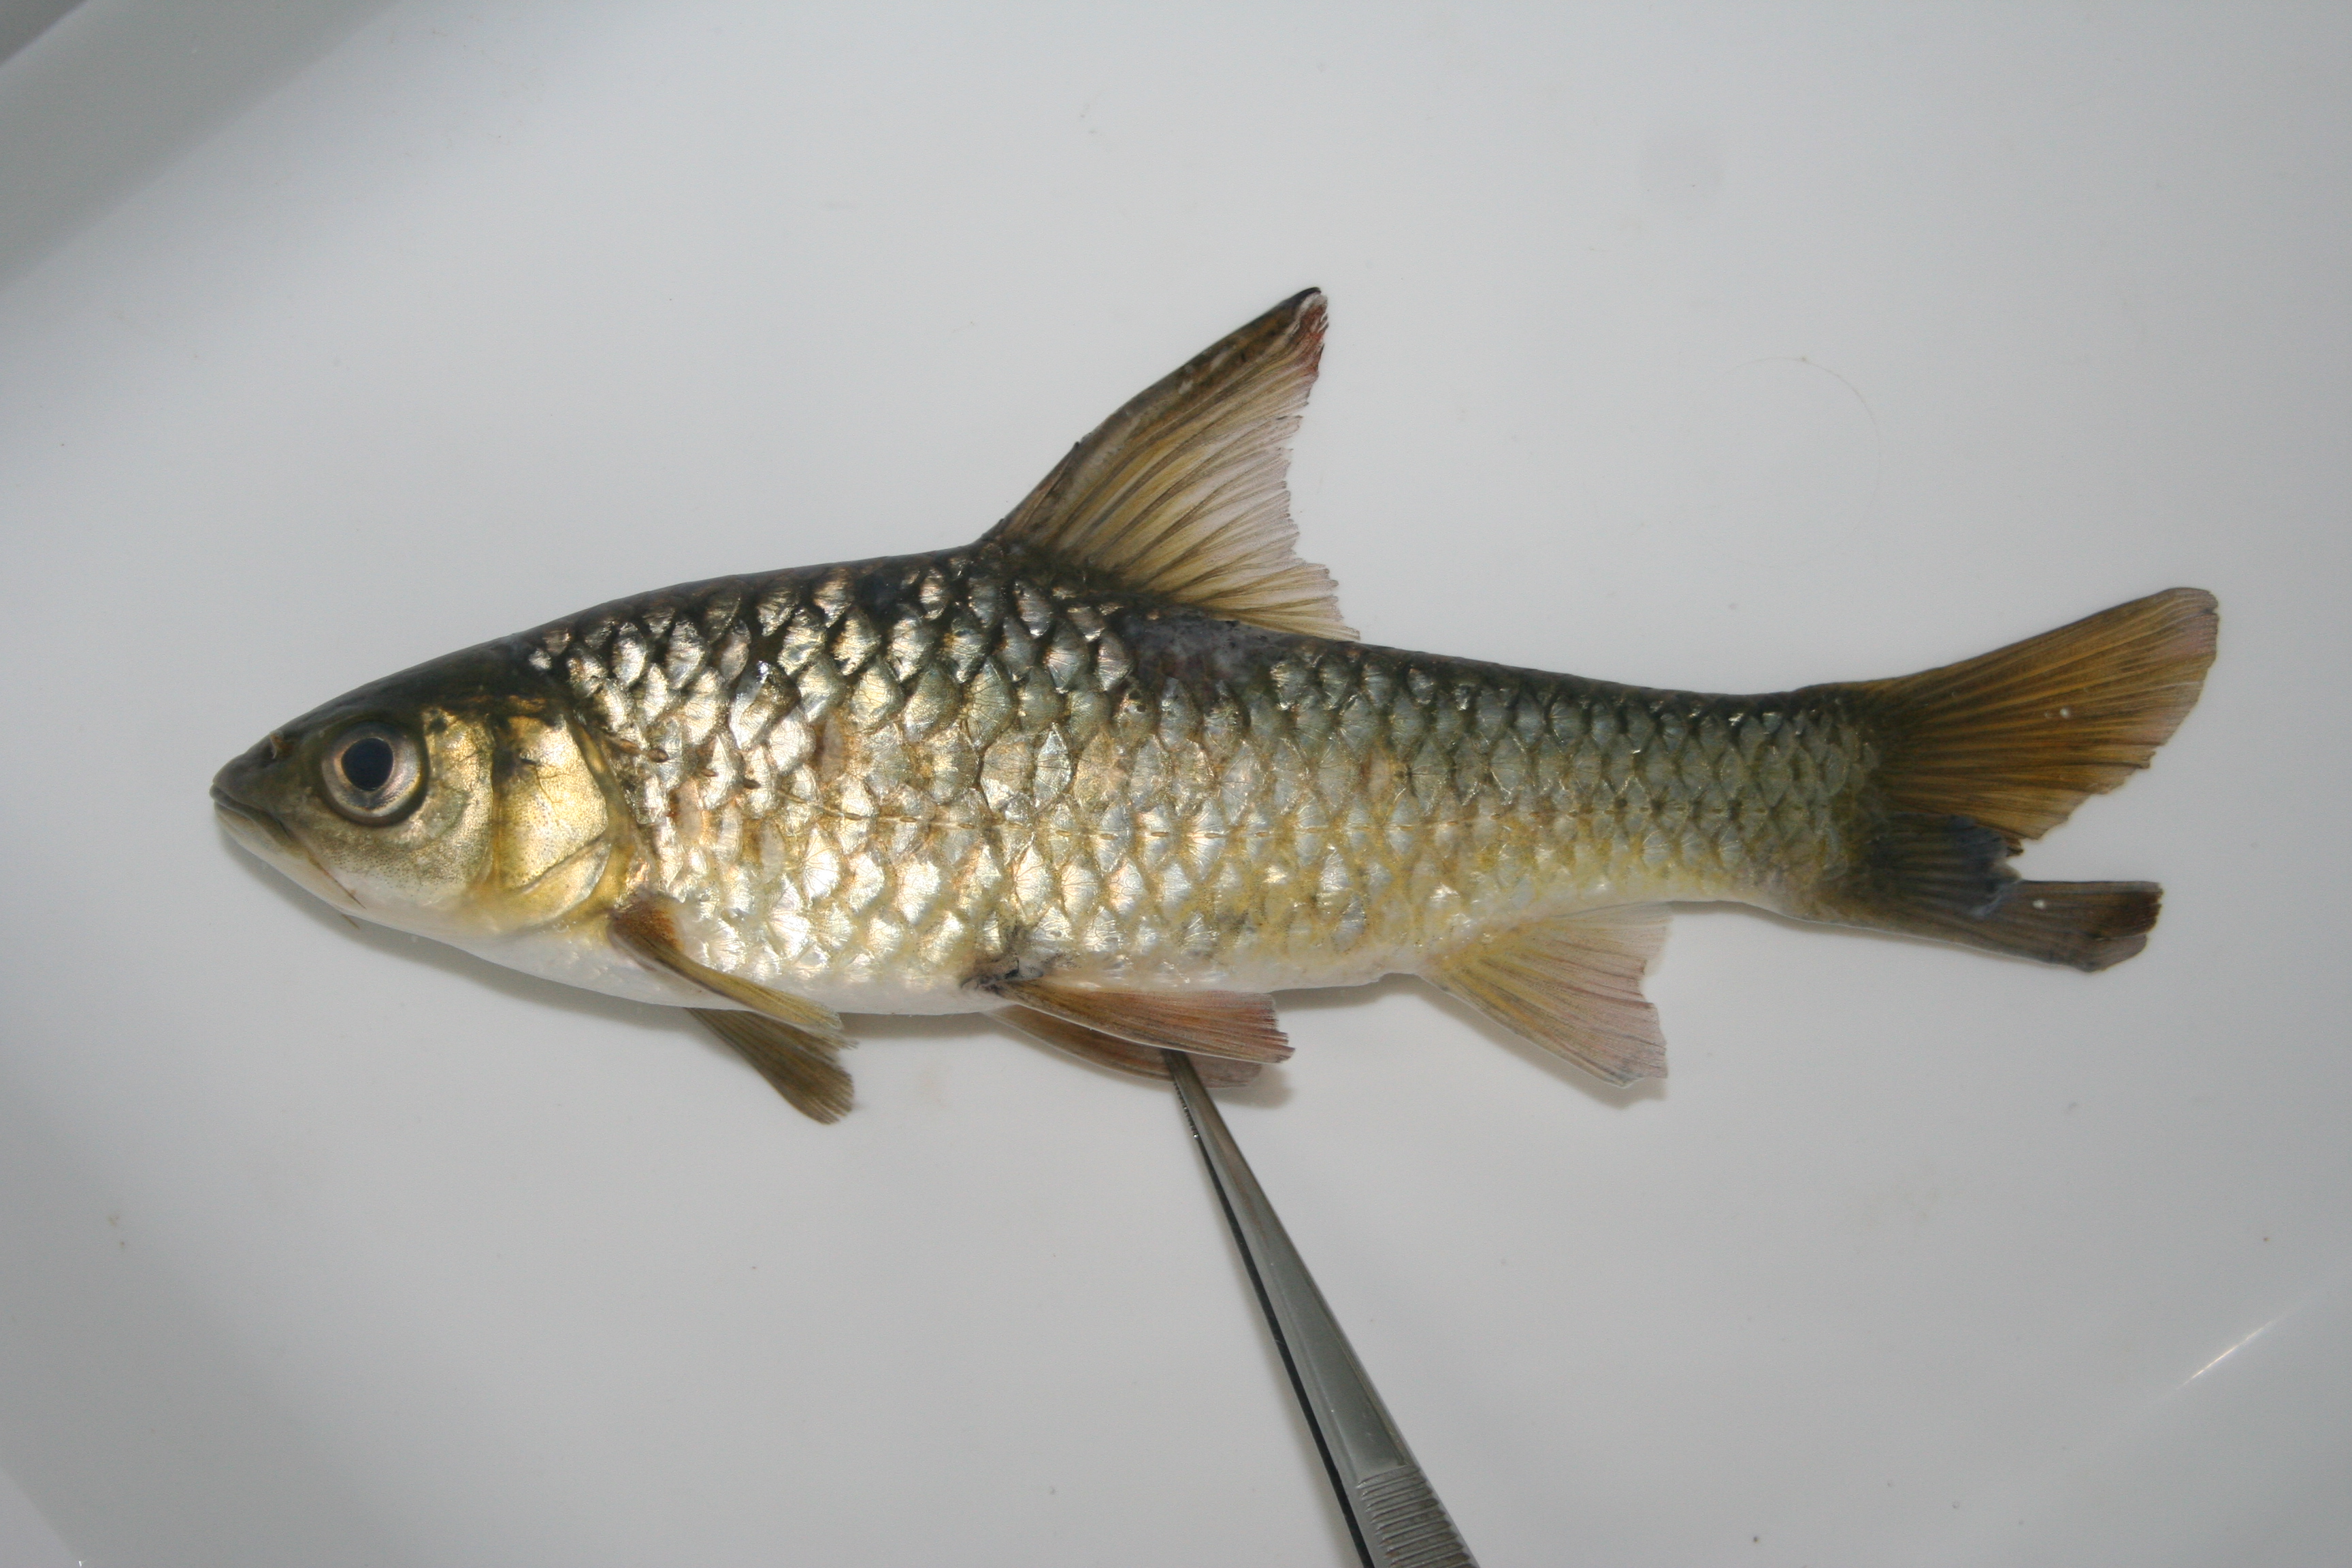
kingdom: Animalia
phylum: Chordata
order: Cypriniformes
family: Cyprinidae
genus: Enteromius
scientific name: Enteromius argenteus
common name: Rosefin barb
